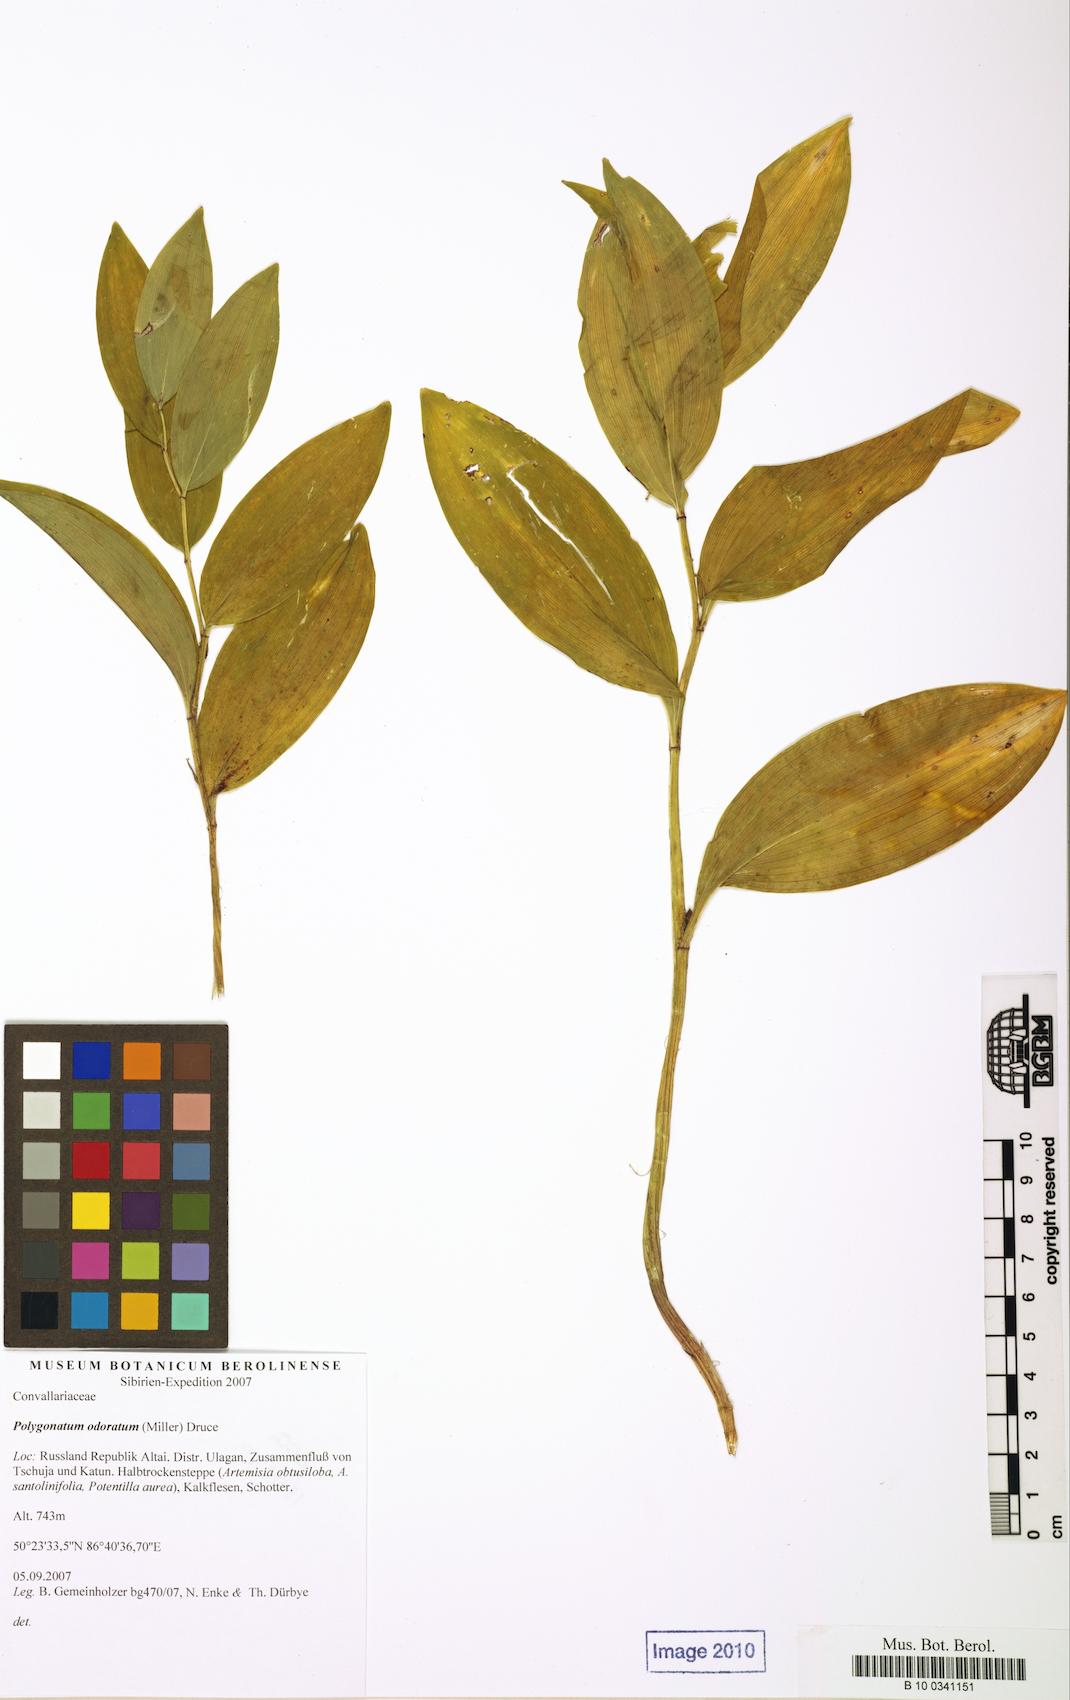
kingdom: Plantae
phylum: Tracheophyta
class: Liliopsida
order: Asparagales
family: Asparagaceae
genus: Polygonatum
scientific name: Polygonatum odoratum
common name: Angular solomon's-seal
